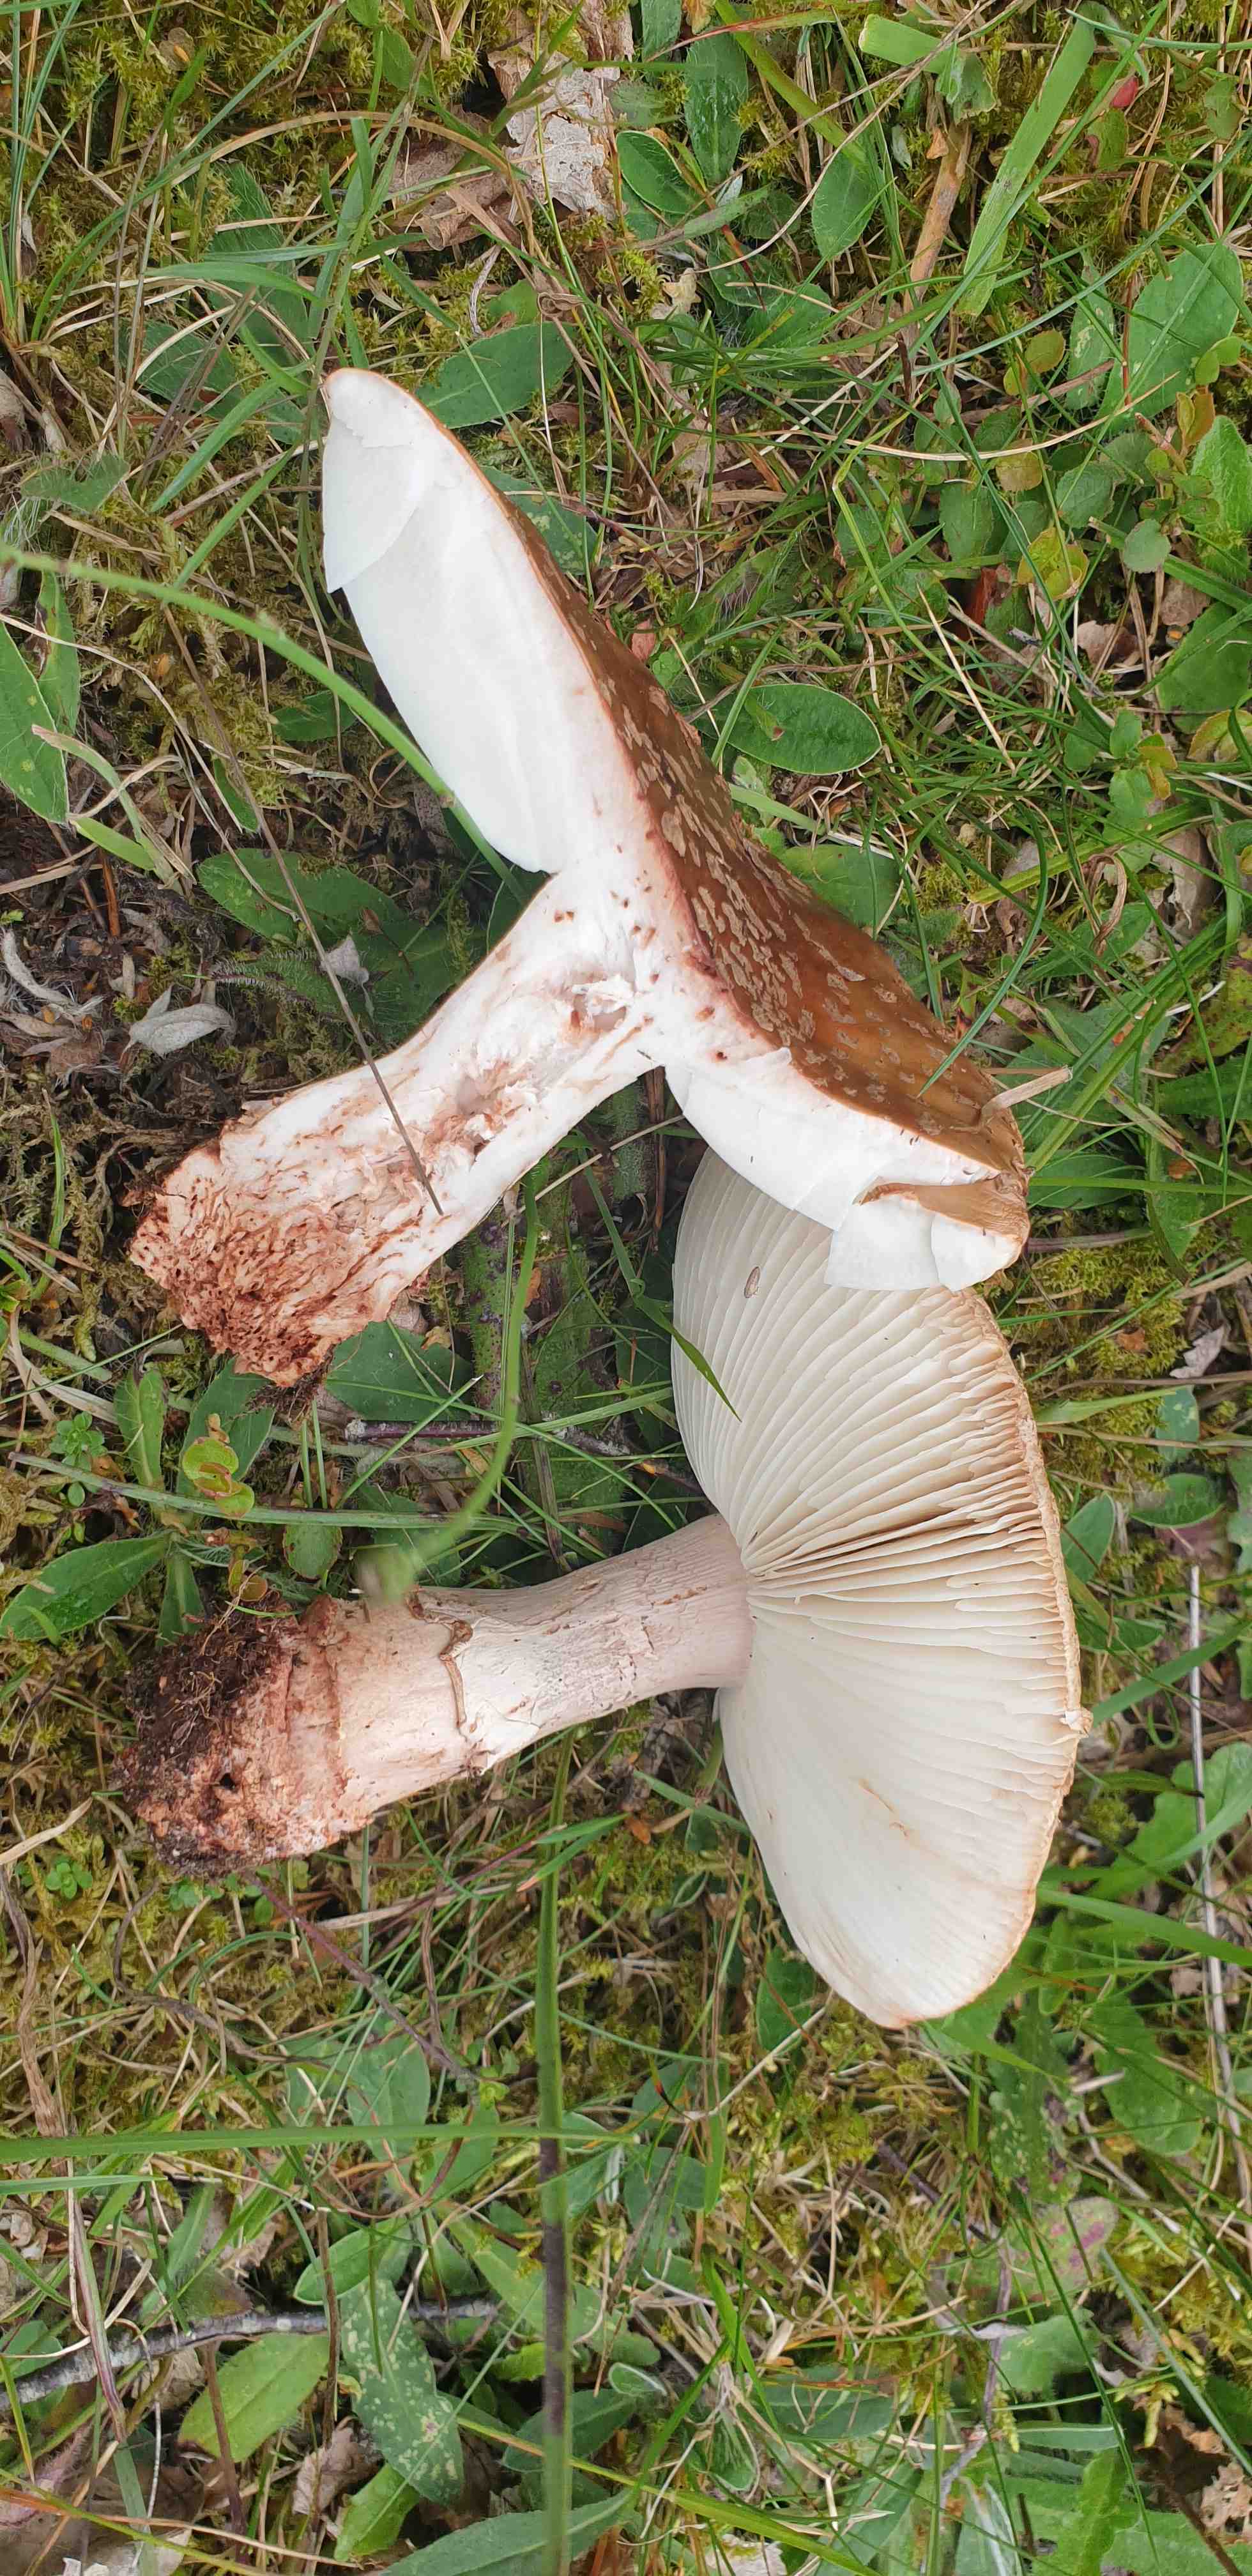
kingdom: Fungi
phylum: Basidiomycota
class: Agaricomycetes
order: Agaricales
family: Amanitaceae
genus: Amanita
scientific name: Amanita rubescens
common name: rødmende fluesvamp
